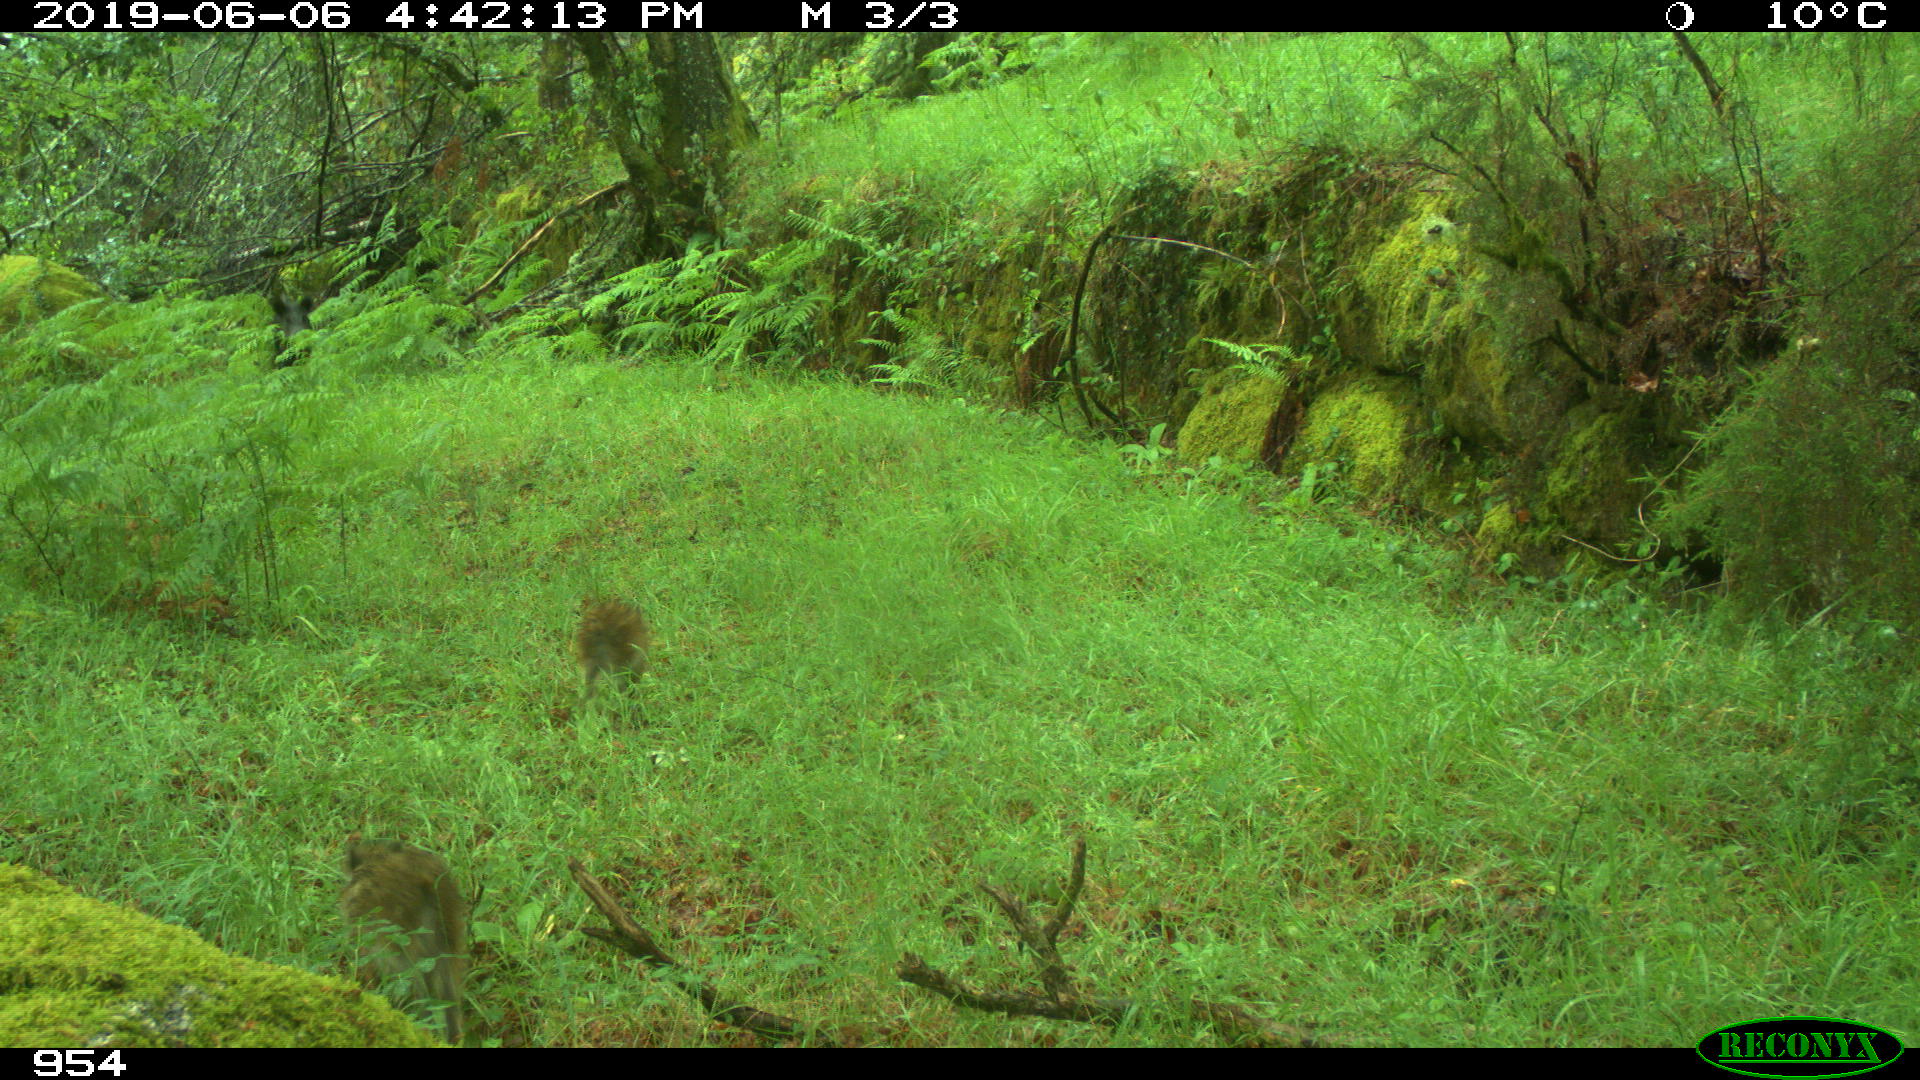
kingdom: Animalia
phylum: Chordata
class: Mammalia
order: Artiodactyla
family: Suidae
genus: Sus
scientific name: Sus scrofa
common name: Wild boar
